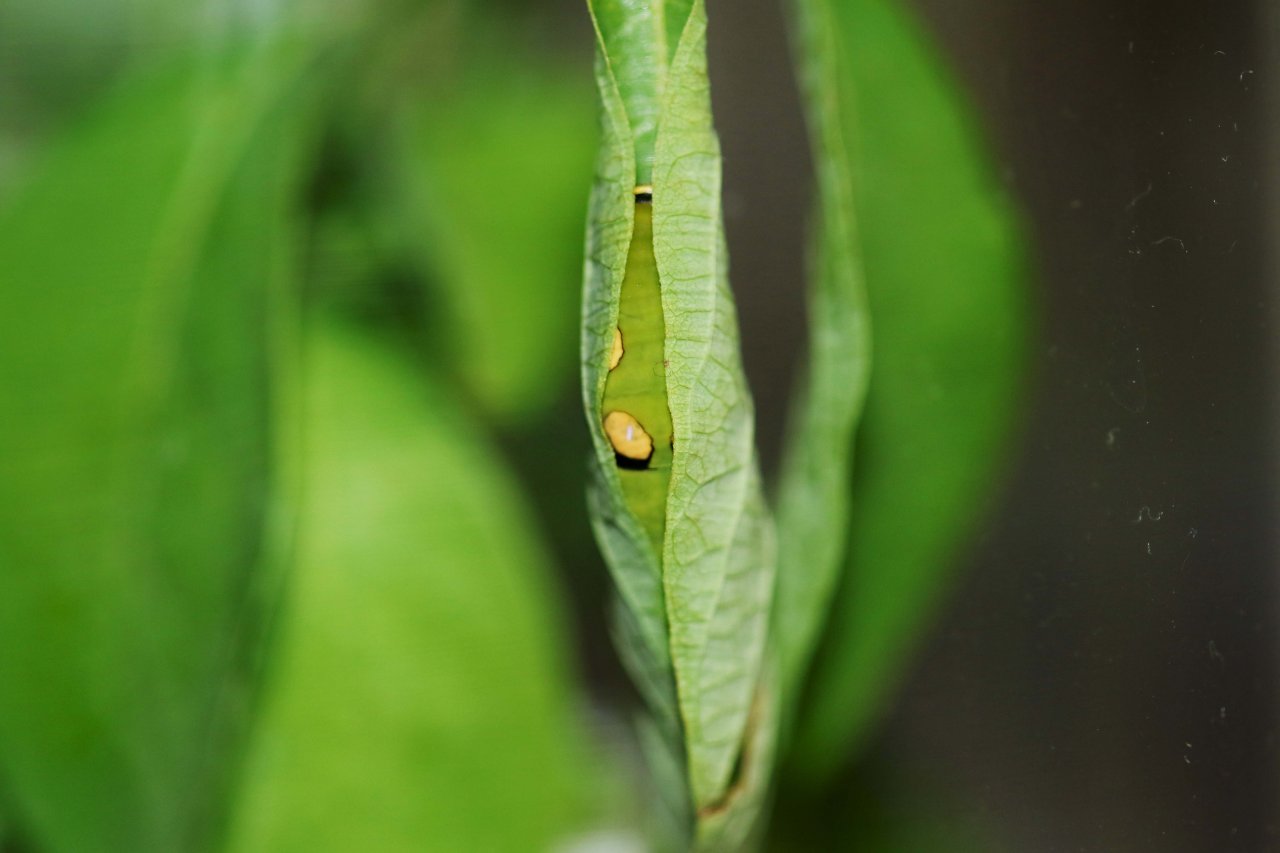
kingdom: Animalia
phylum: Arthropoda
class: Insecta
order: Lepidoptera
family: Papilionidae
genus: Pterourus
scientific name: Pterourus troilus
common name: Spicebush Swallowtail
